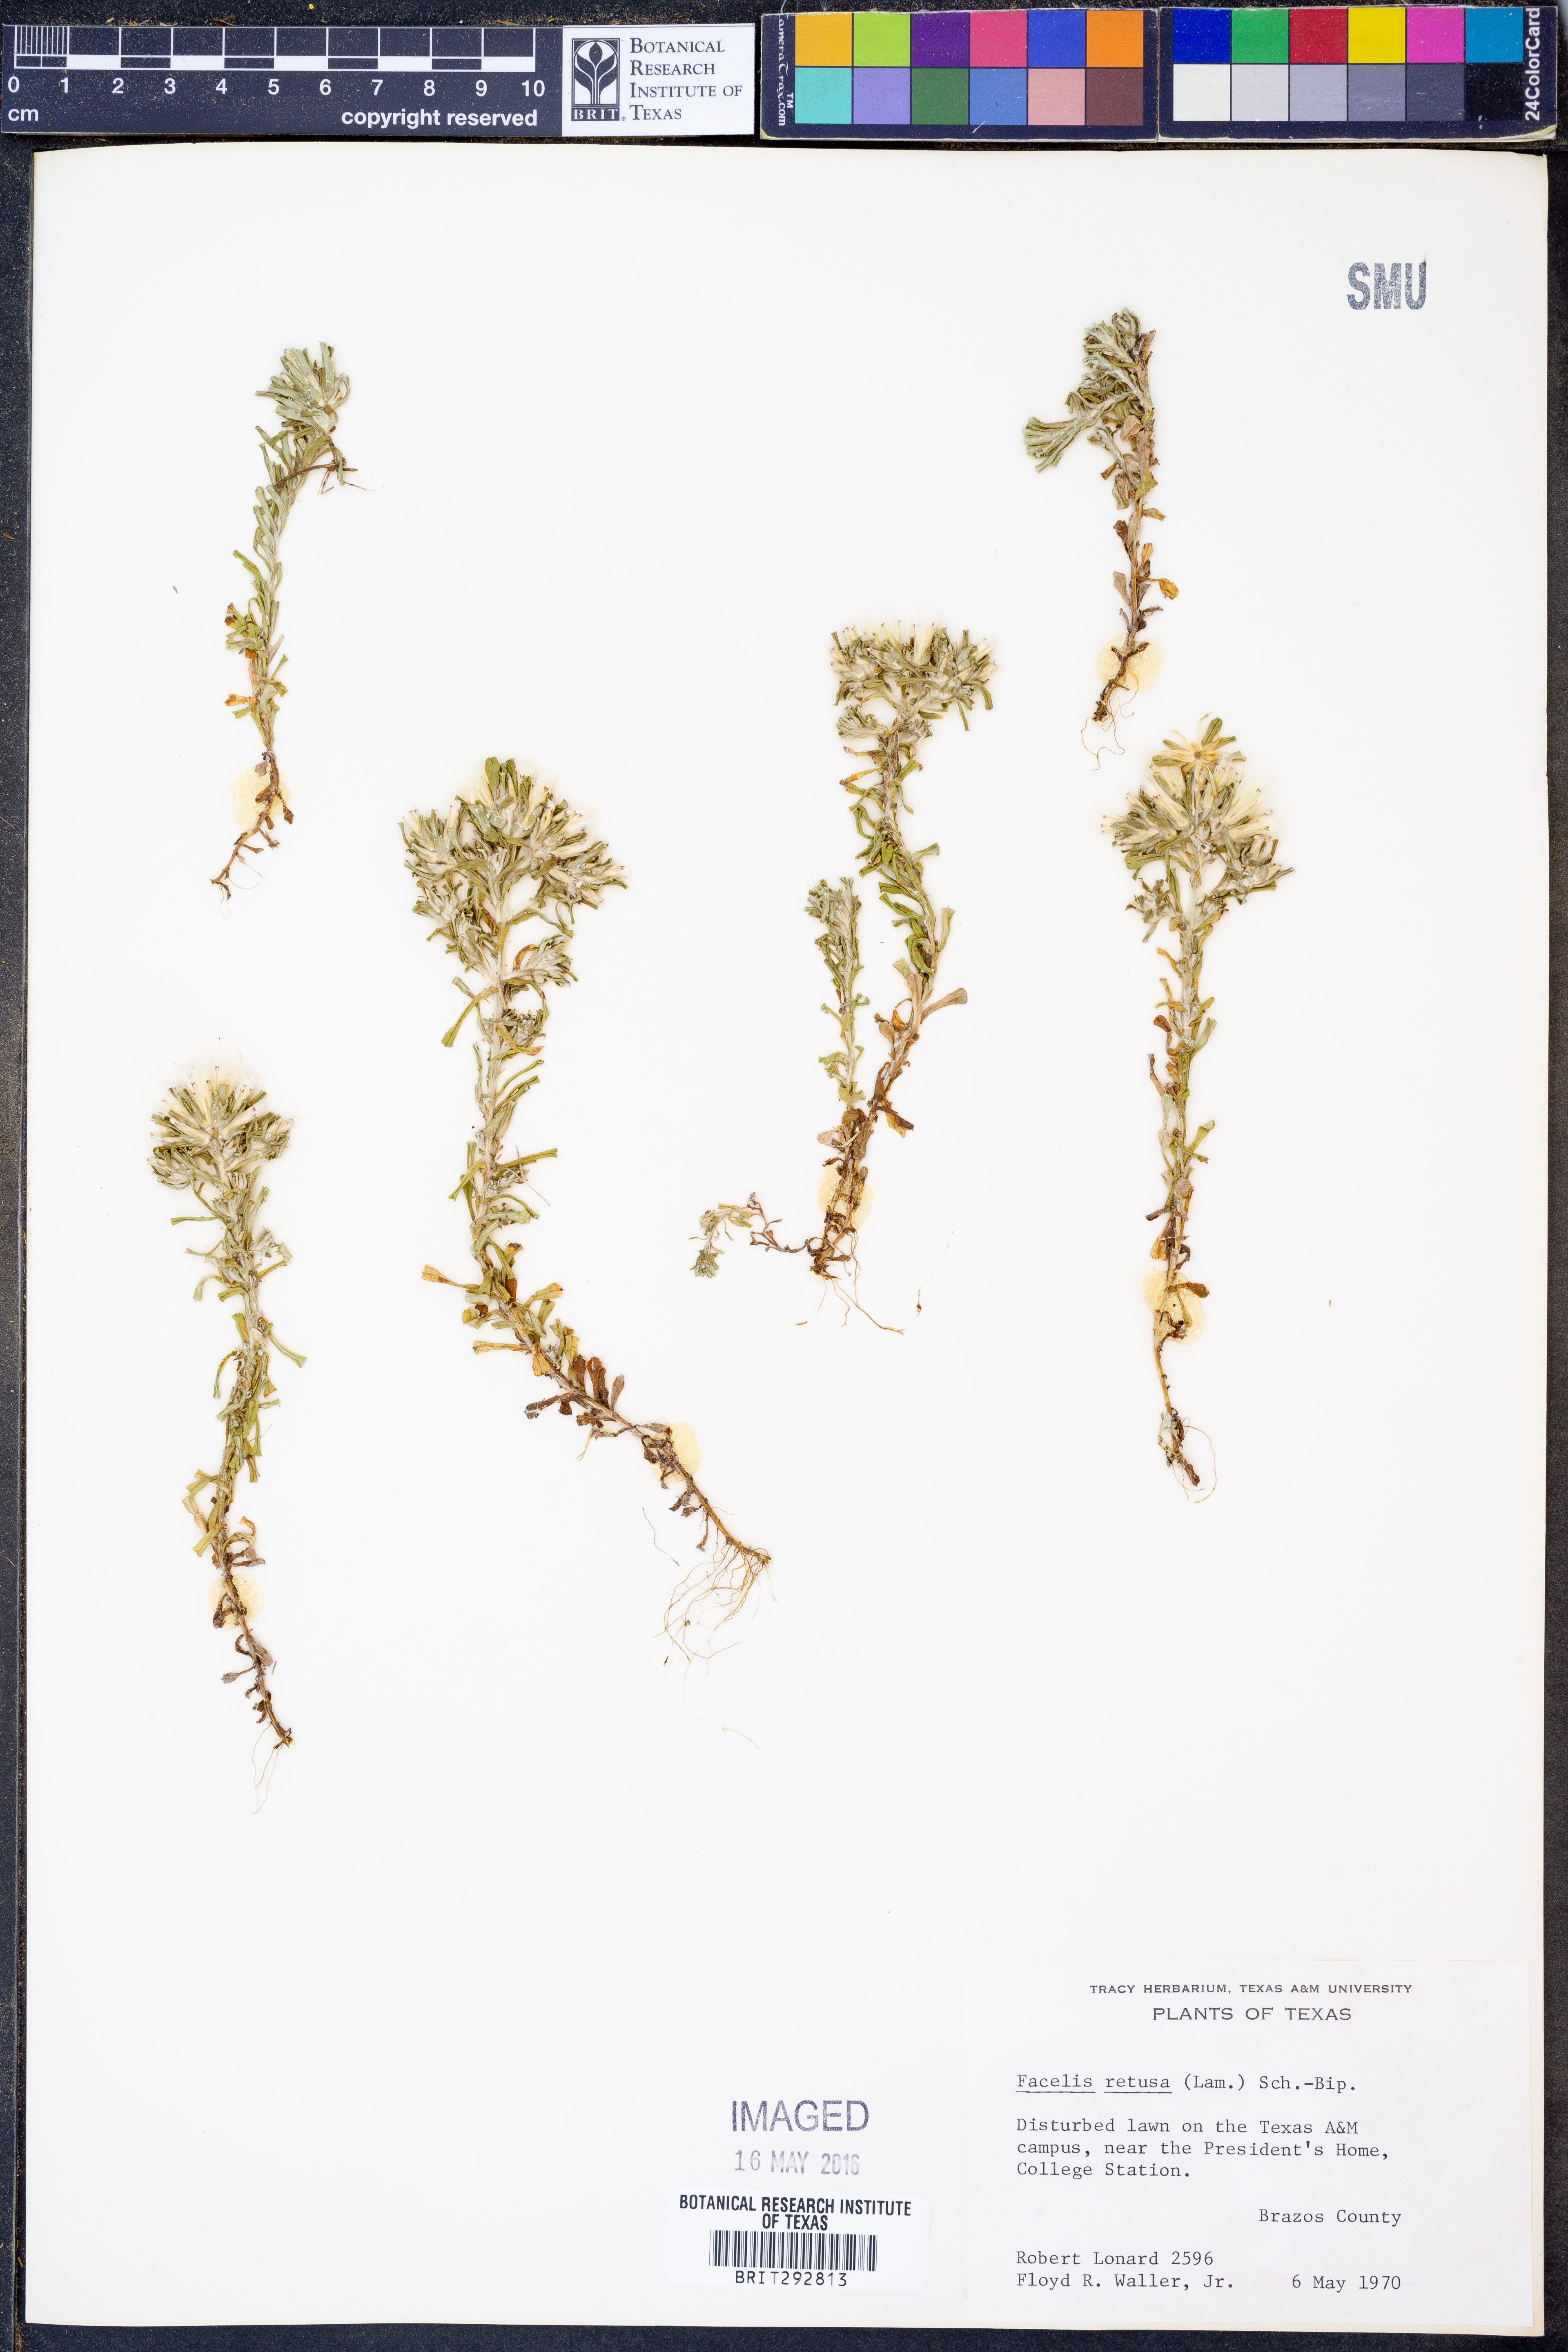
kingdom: Plantae
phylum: Tracheophyta
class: Magnoliopsida
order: Asterales
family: Asteraceae
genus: Facelis
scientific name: Facelis retusa
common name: Annual trampweed
